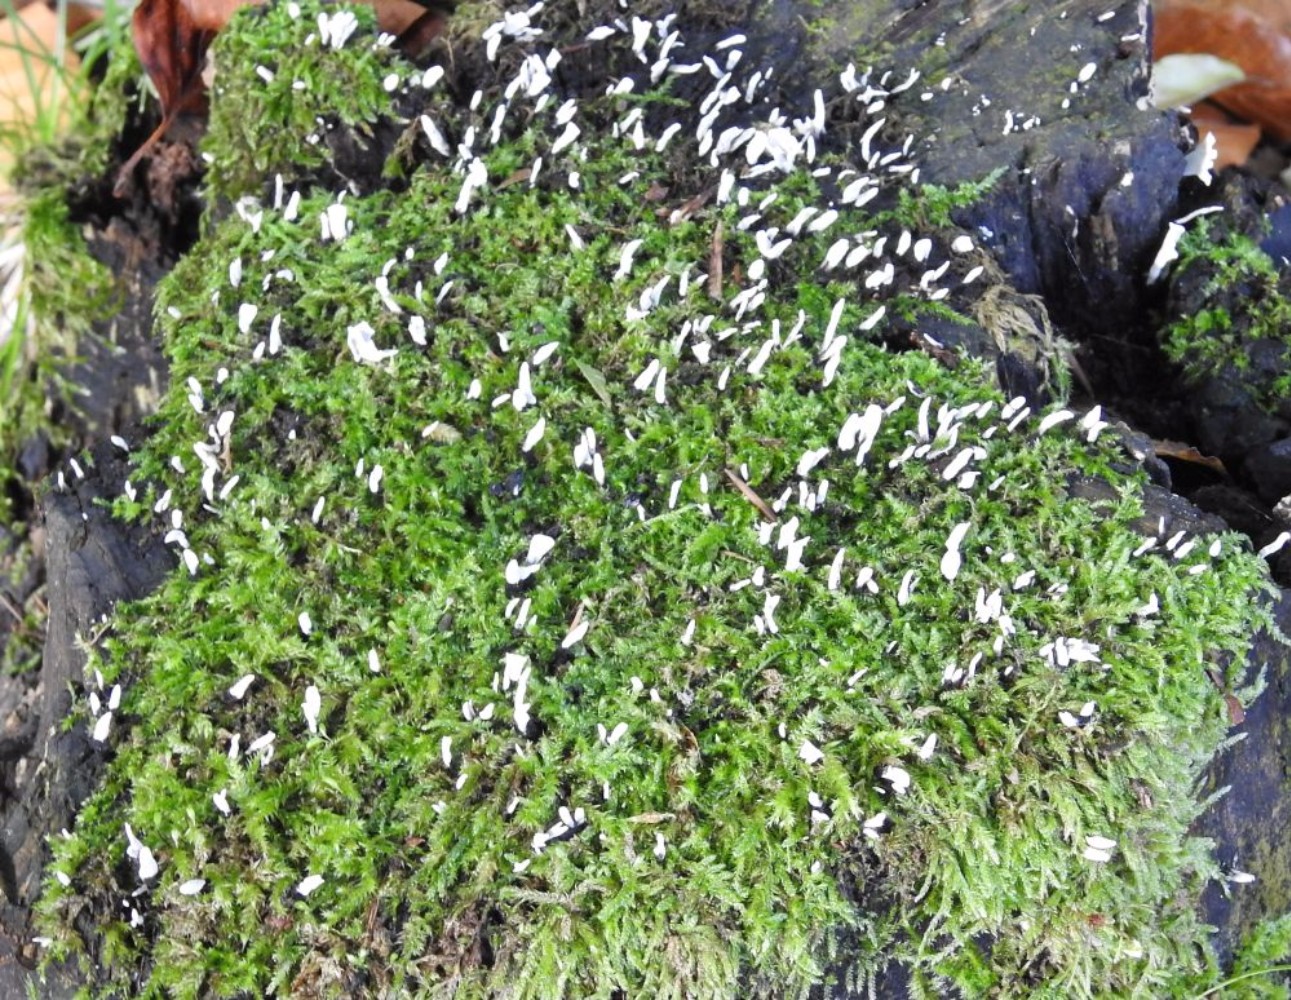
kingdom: Fungi
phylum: Ascomycota
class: Sordariomycetes
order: Xylariales
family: Xylariaceae
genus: Xylaria
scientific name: Xylaria hypoxylon
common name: grenet stødsvamp
